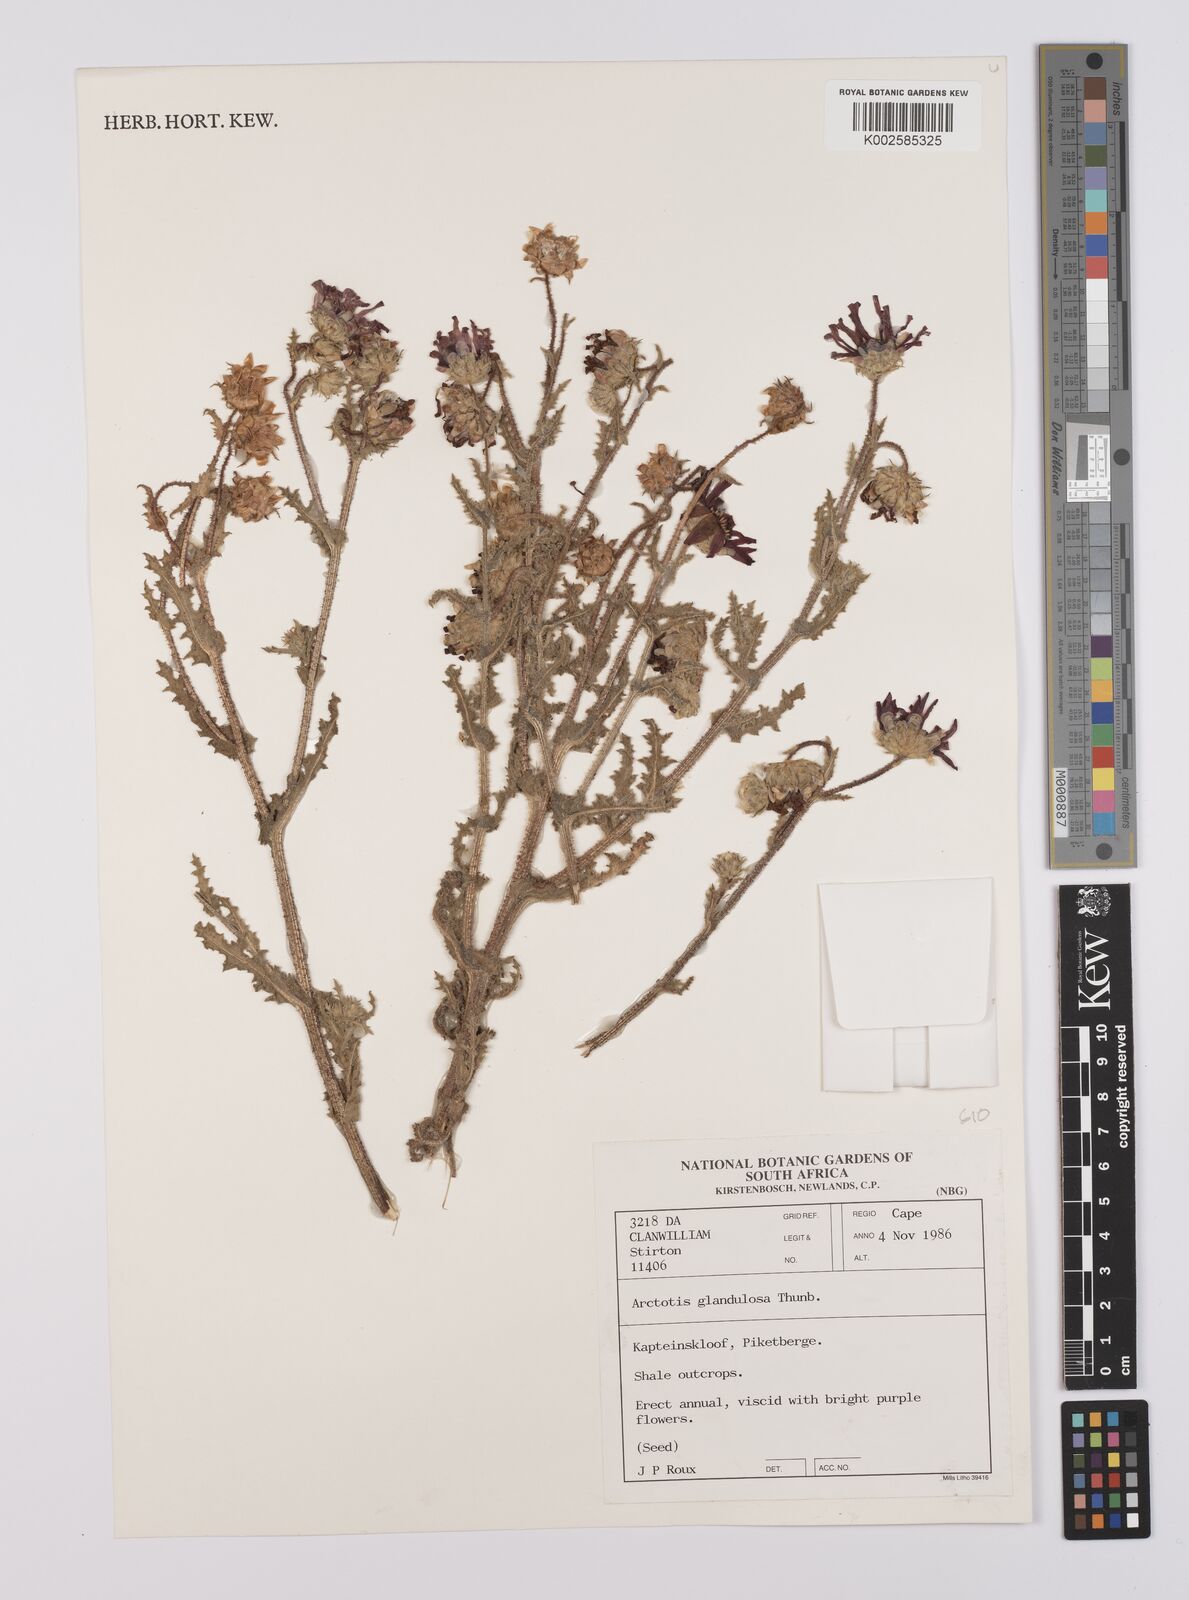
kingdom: Plantae
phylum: Tracheophyta
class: Magnoliopsida
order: Asterales
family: Asteraceae
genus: Arctotis
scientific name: Arctotis glandulosa
